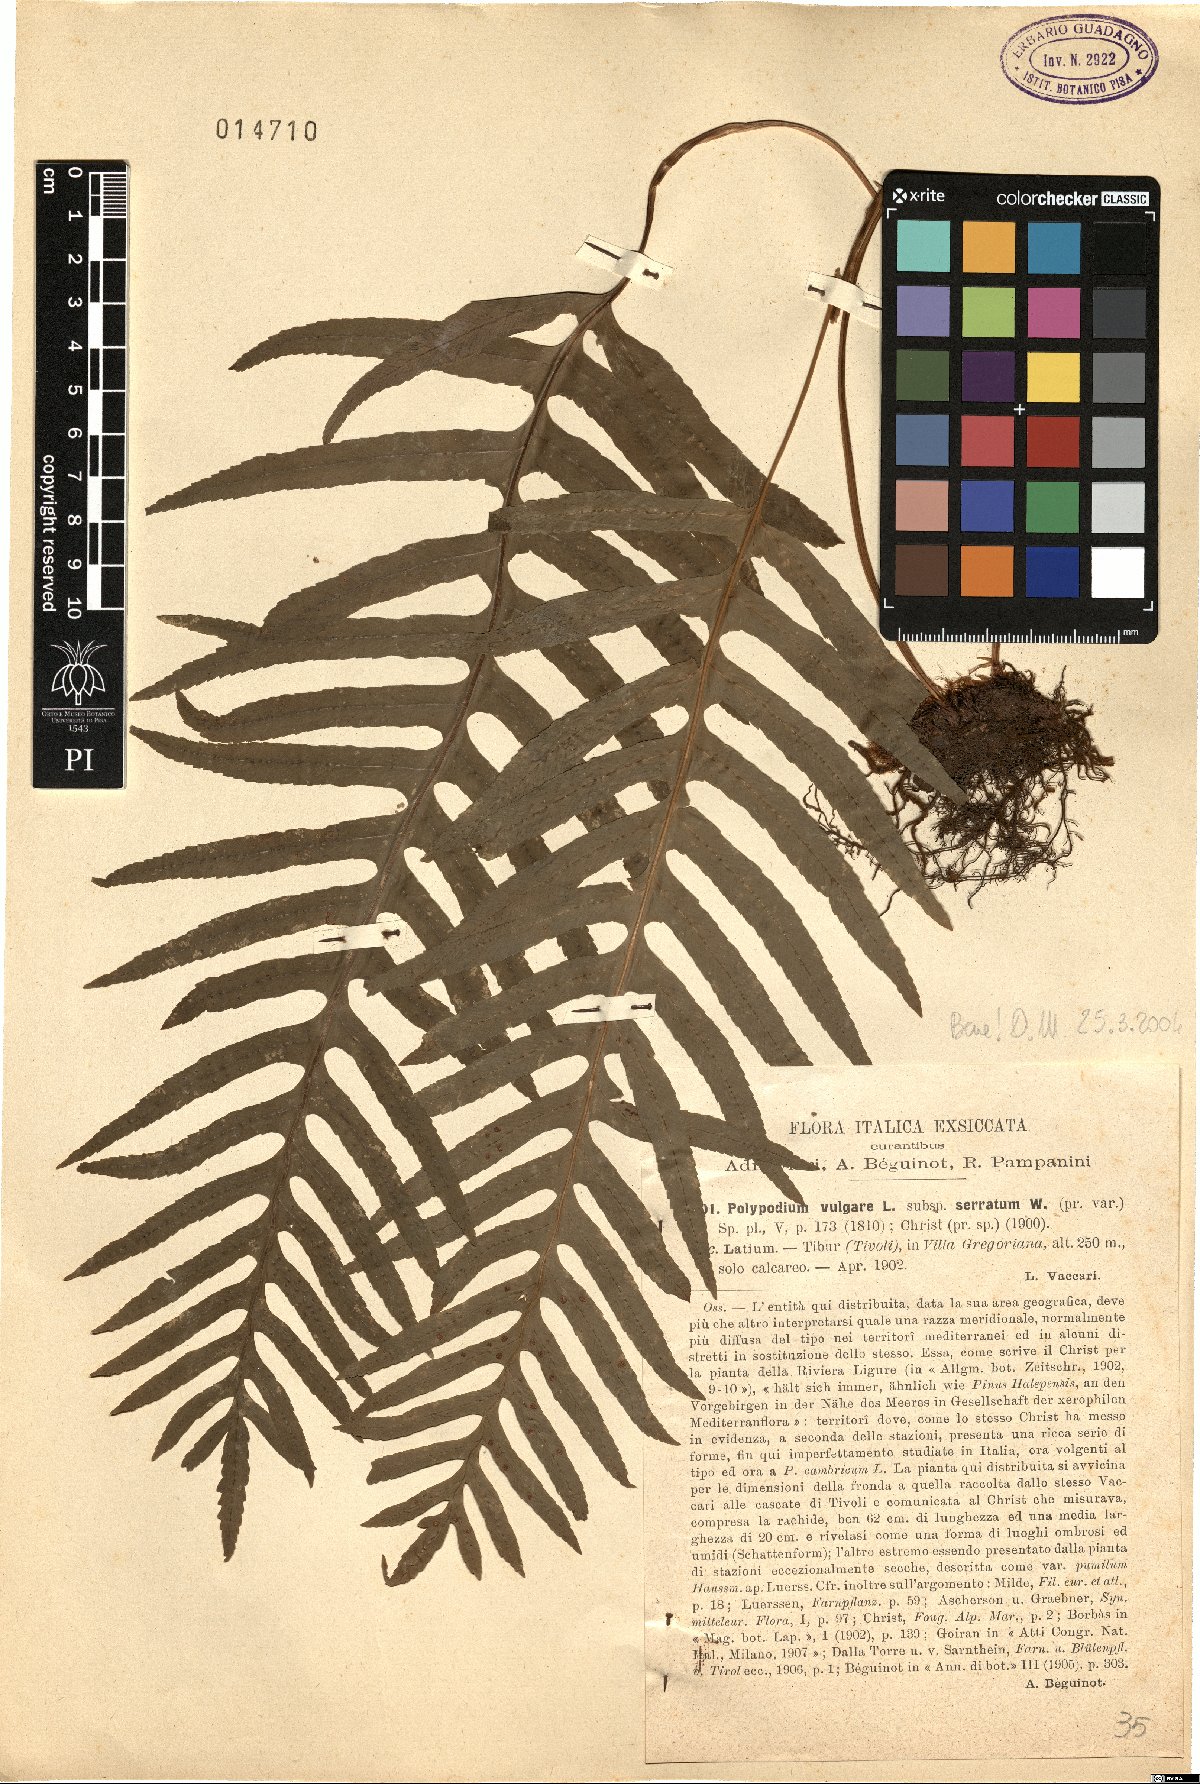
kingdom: Plantae
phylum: Tracheophyta
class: Polypodiopsida
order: Polypodiales
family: Polypodiaceae
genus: Polypodium
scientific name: Polypodium cambricum
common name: Southern polypody
